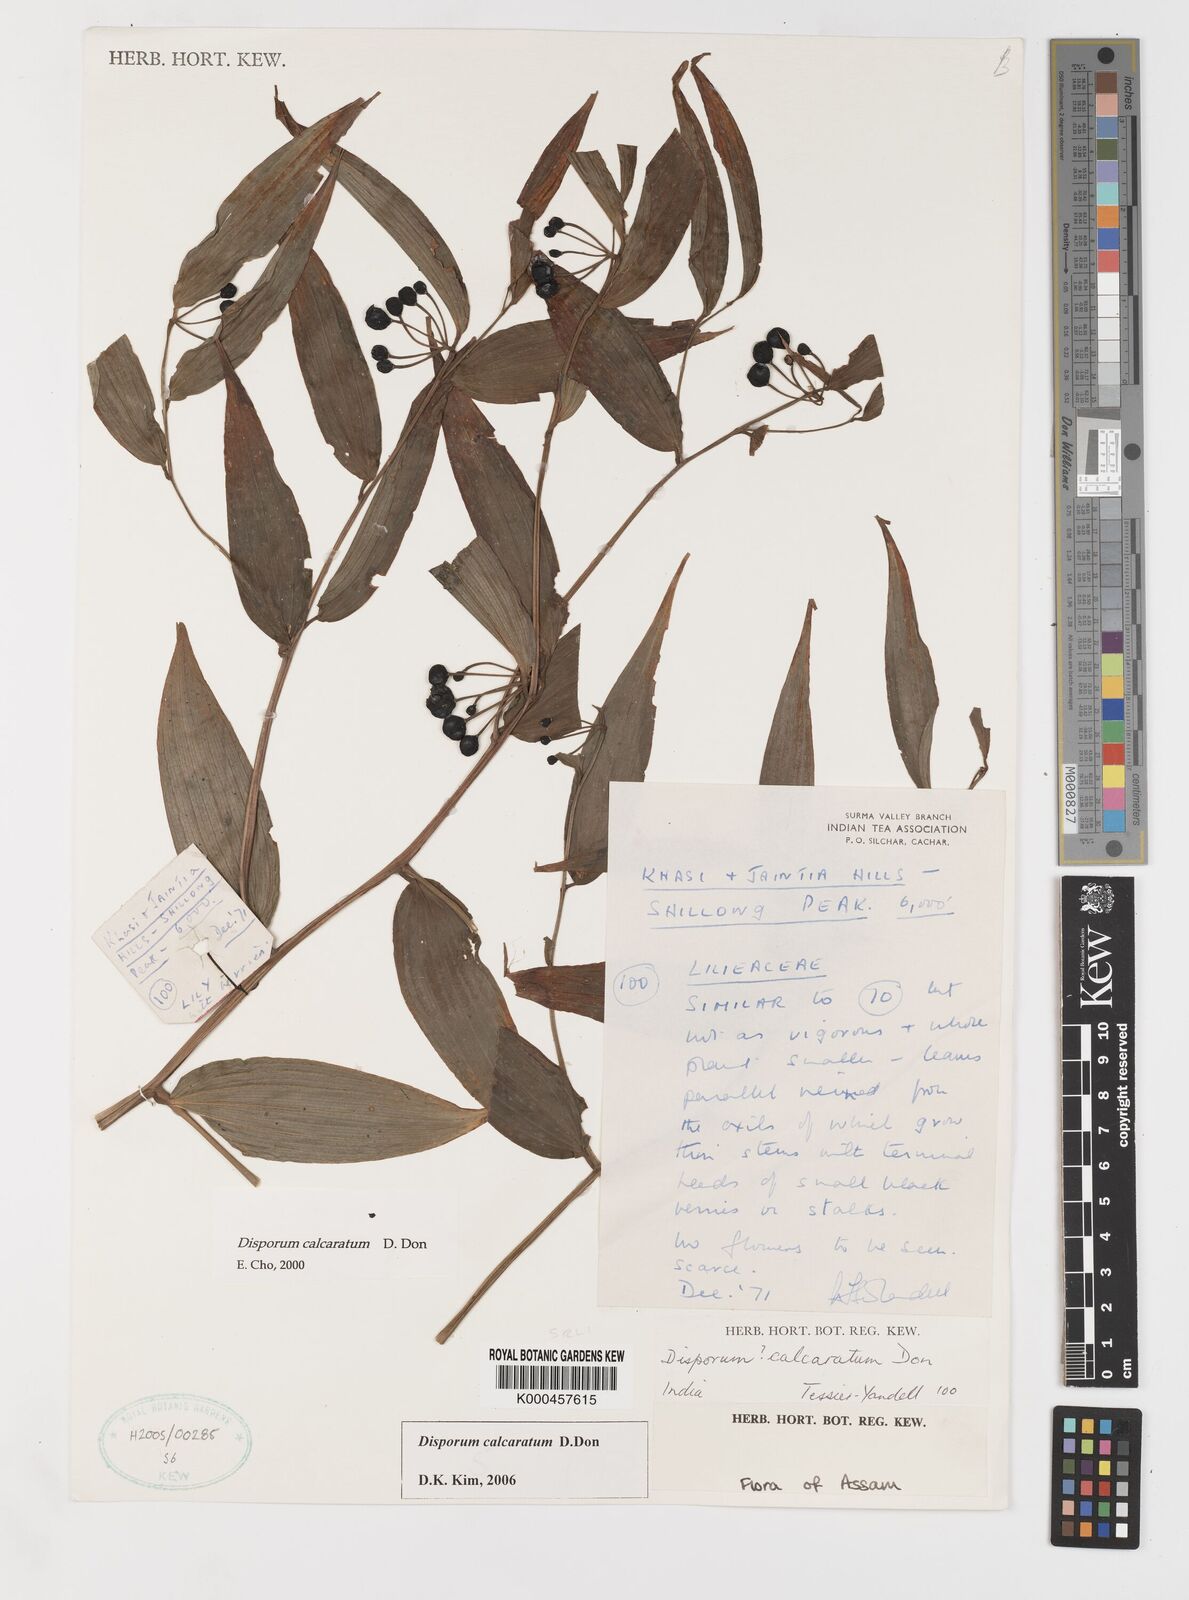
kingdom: Plantae
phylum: Tracheophyta
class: Liliopsida
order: Liliales
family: Colchicaceae
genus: Disporum
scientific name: Disporum calcaratum
